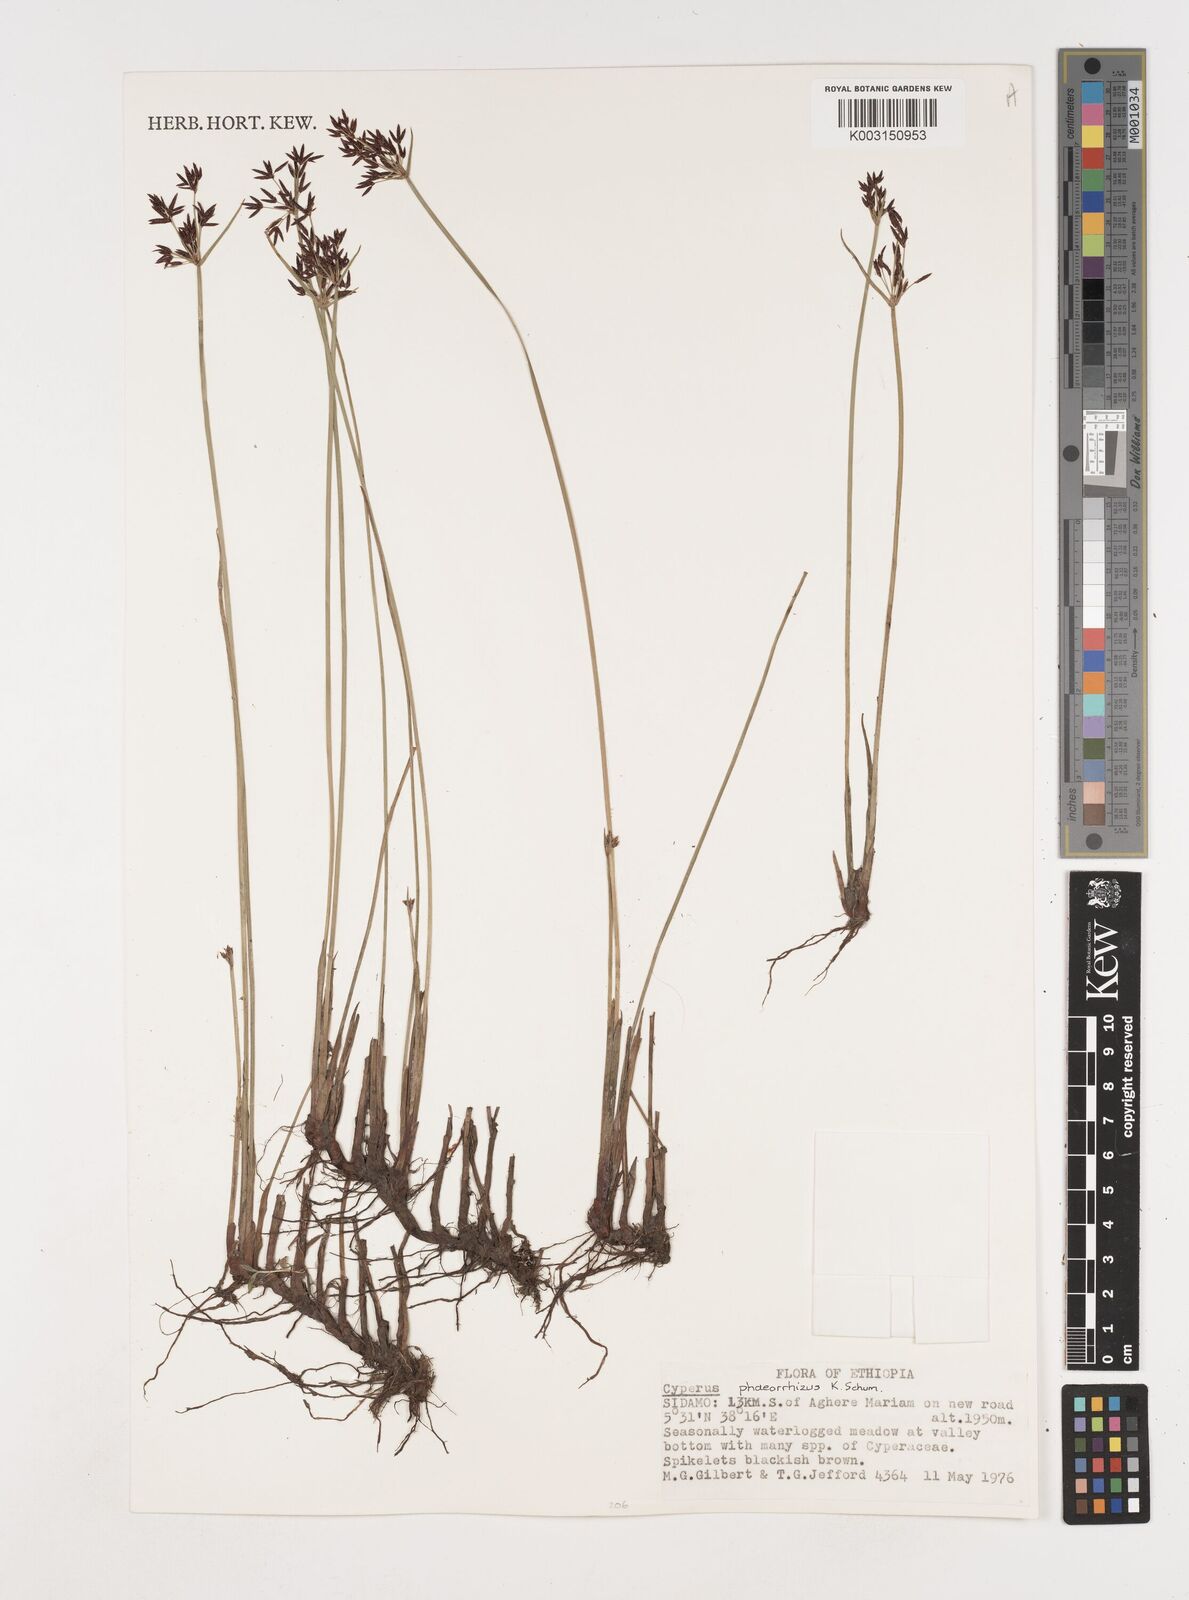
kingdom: Plantae
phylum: Tracheophyta
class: Liliopsida
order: Poales
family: Cyperaceae
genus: Cyperus
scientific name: Cyperus haspan
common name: Haspan flatsedge
